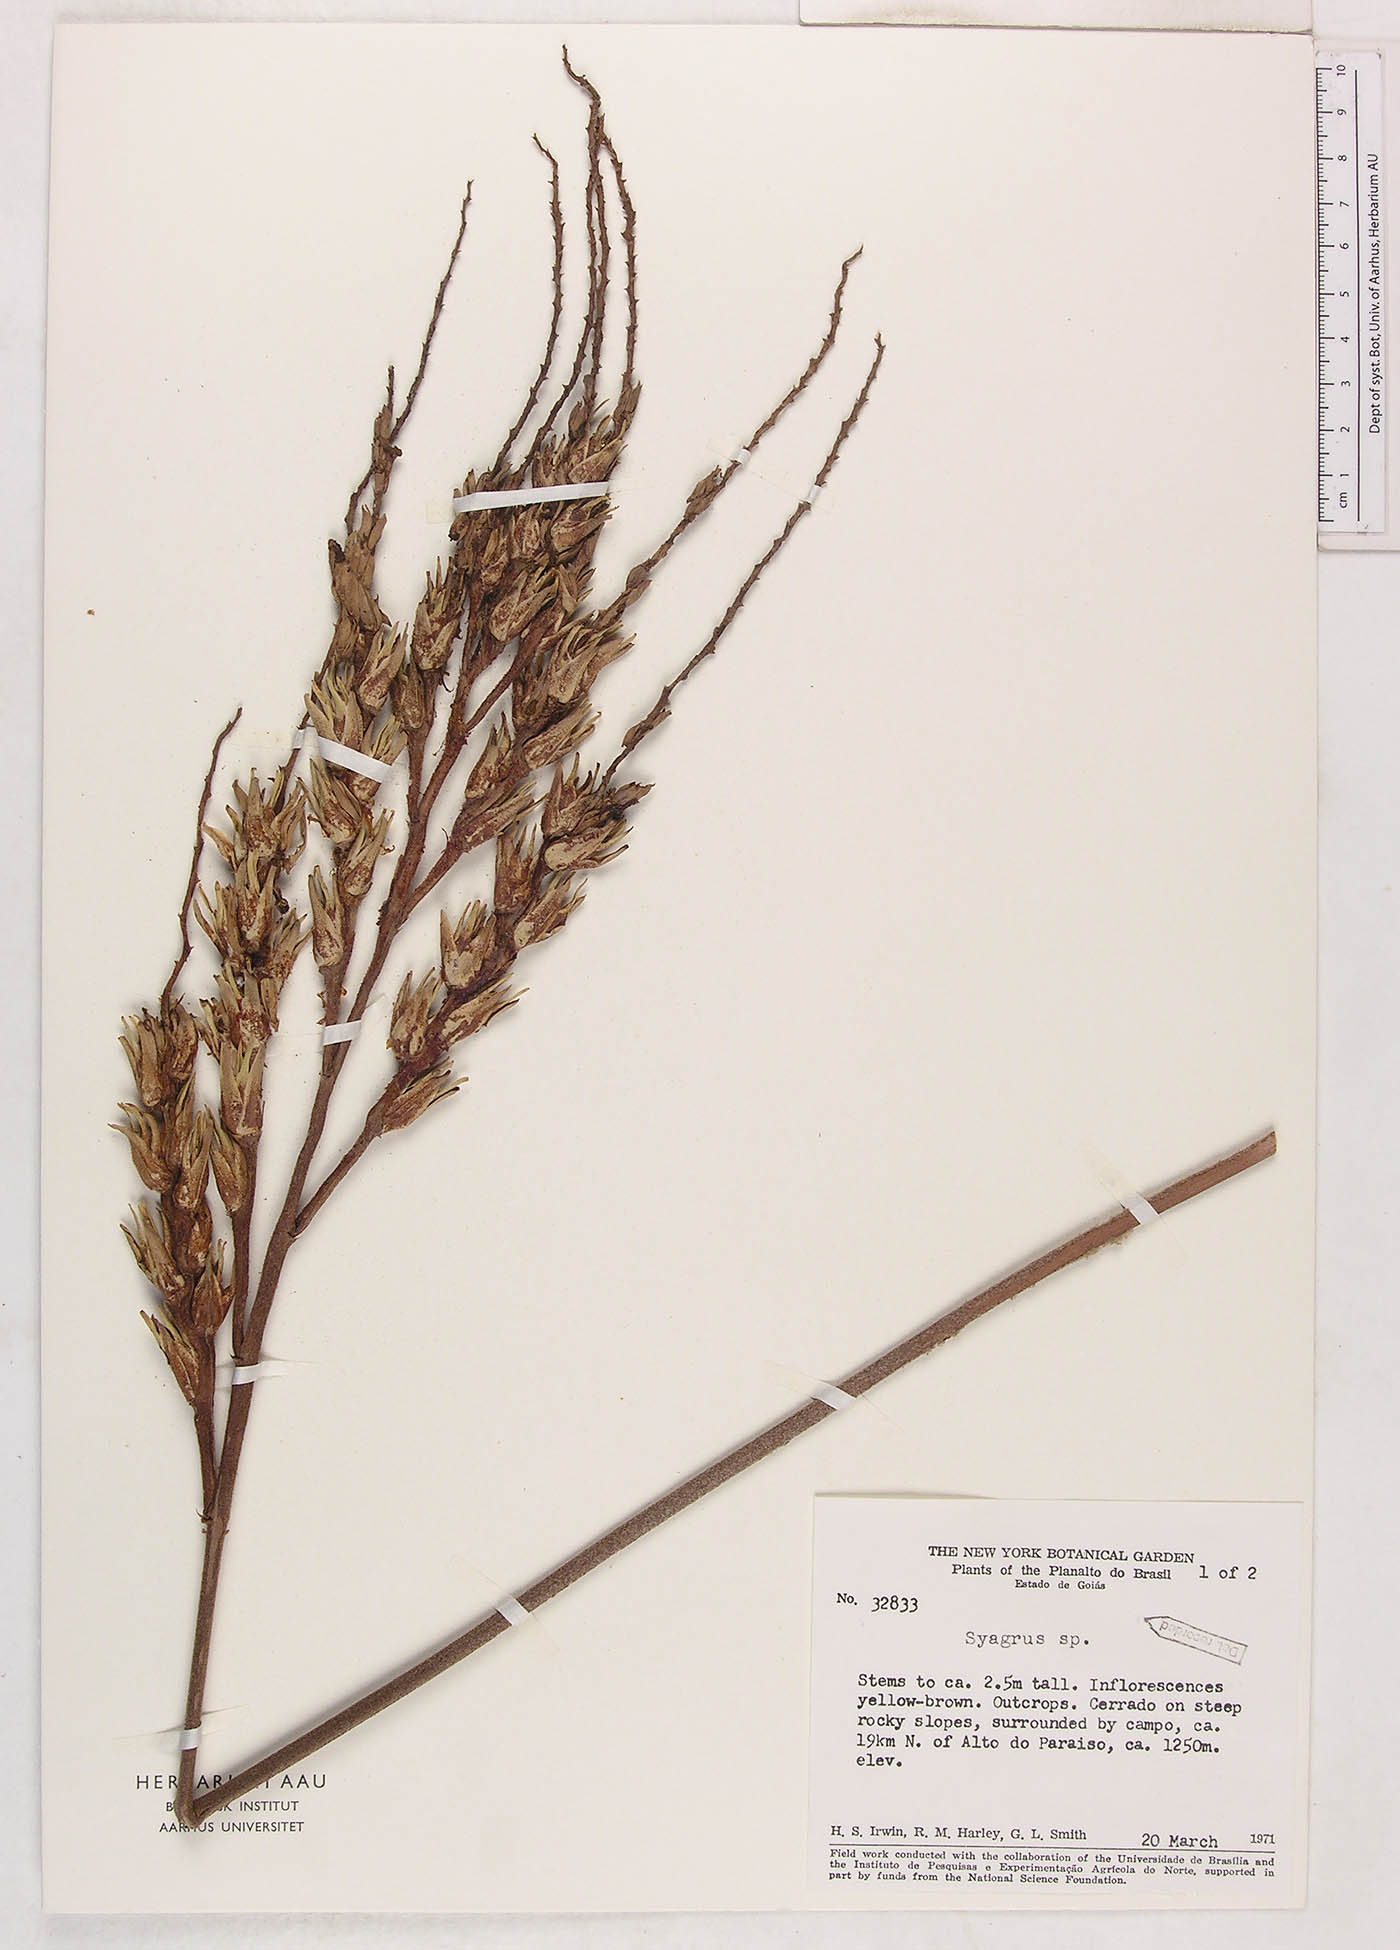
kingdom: Plantae
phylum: Tracheophyta
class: Liliopsida
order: Arecales
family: Arecaceae
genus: Syagrus
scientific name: Syagrus
